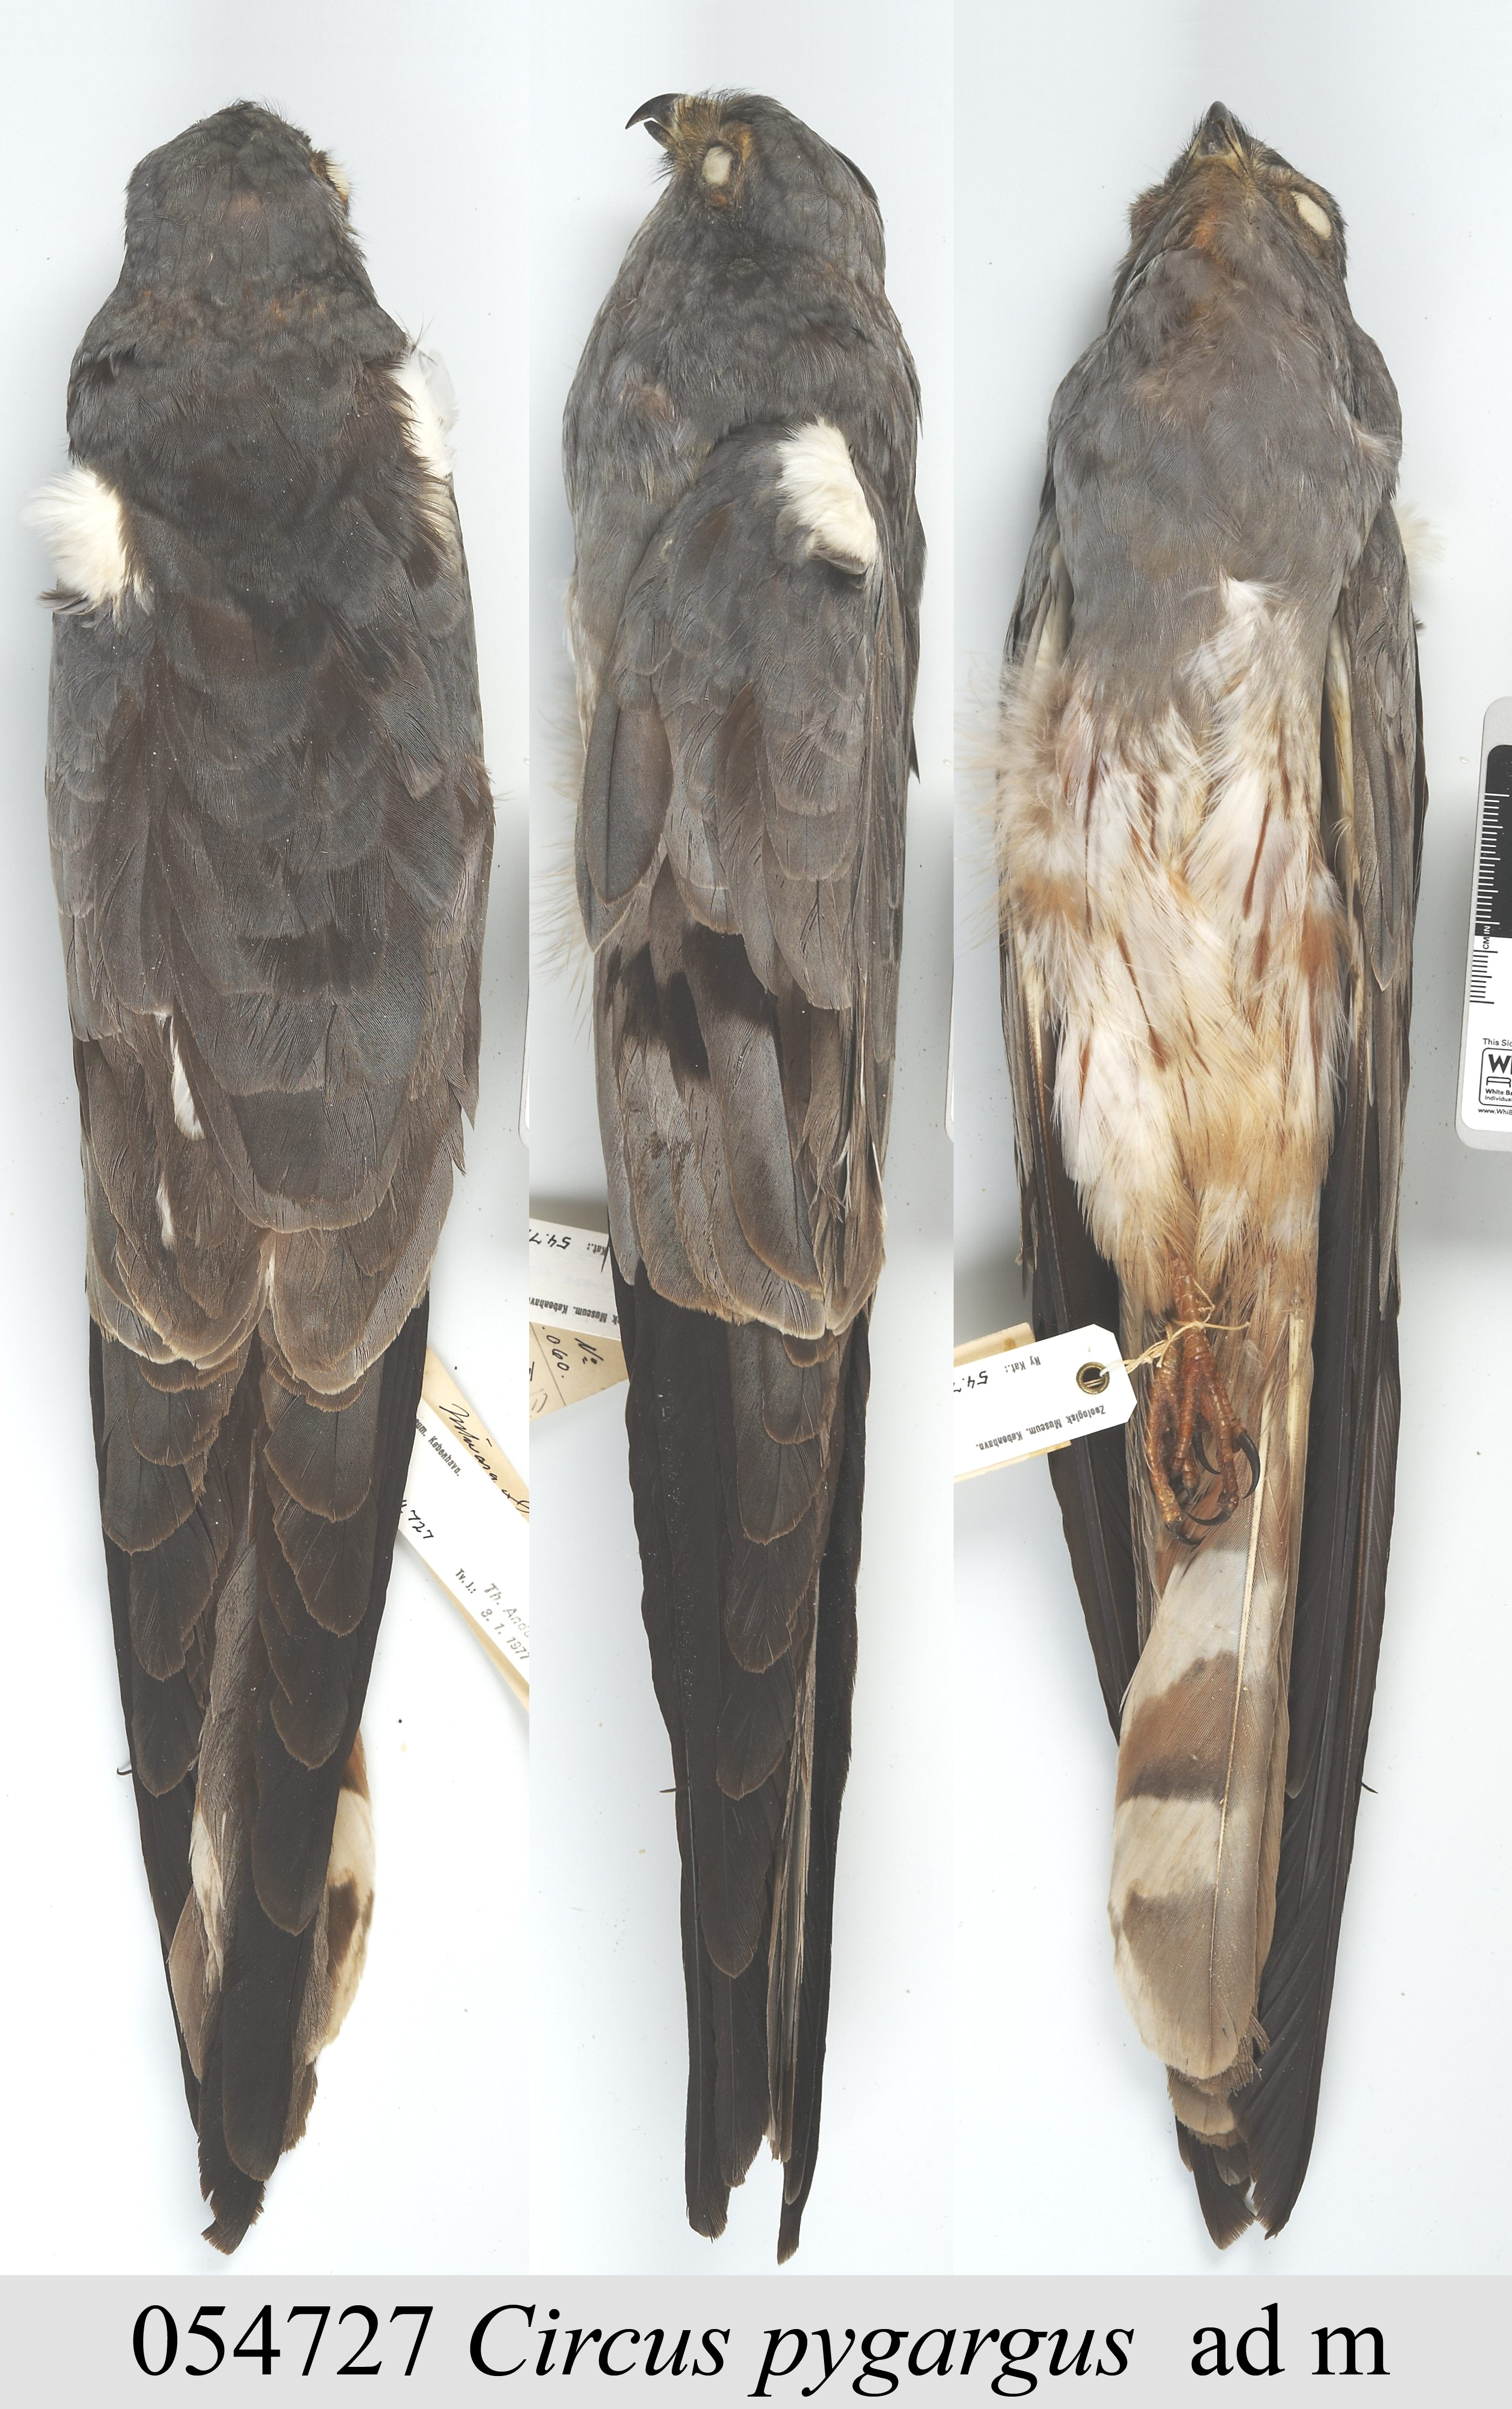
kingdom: Animalia
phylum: Chordata
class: Aves
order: Accipitriformes
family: Accipitridae
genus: Circus
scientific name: Circus pygargus
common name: Montagu's harrier
